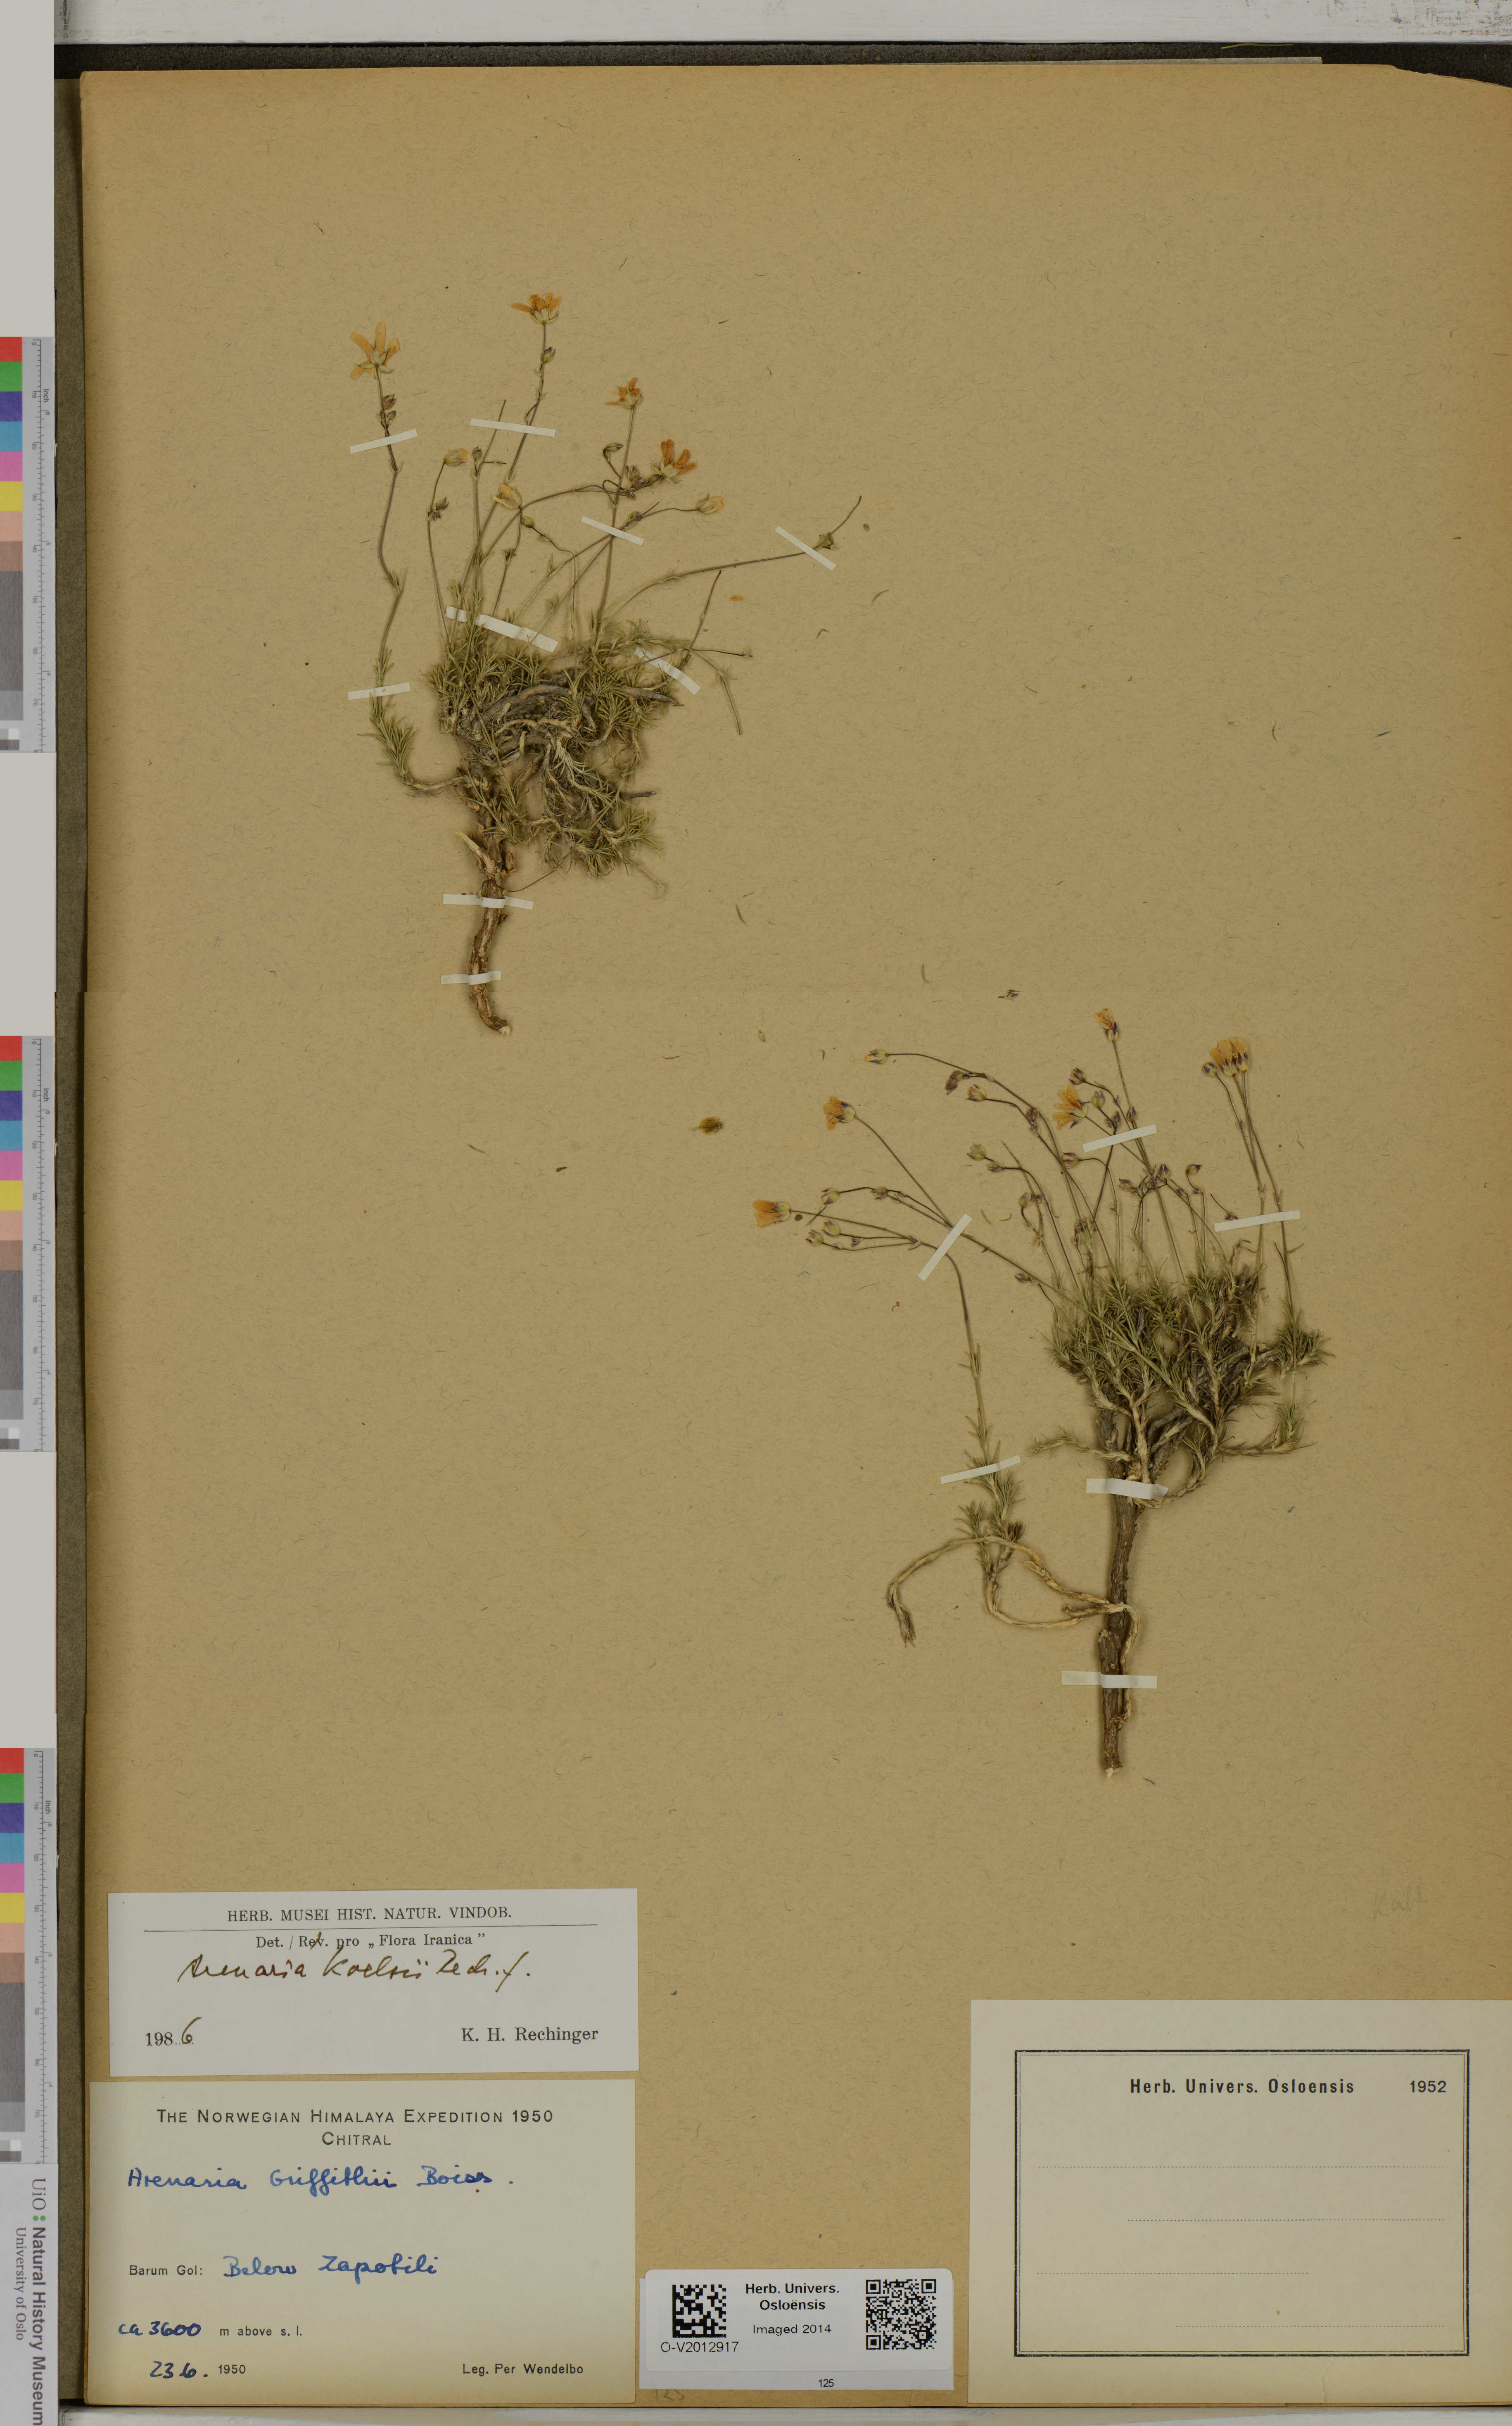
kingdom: Plantae
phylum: Tracheophyta
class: Magnoliopsida
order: Caryophyllales
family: Caryophyllaceae
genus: Eremogone
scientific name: Eremogone koelzii
